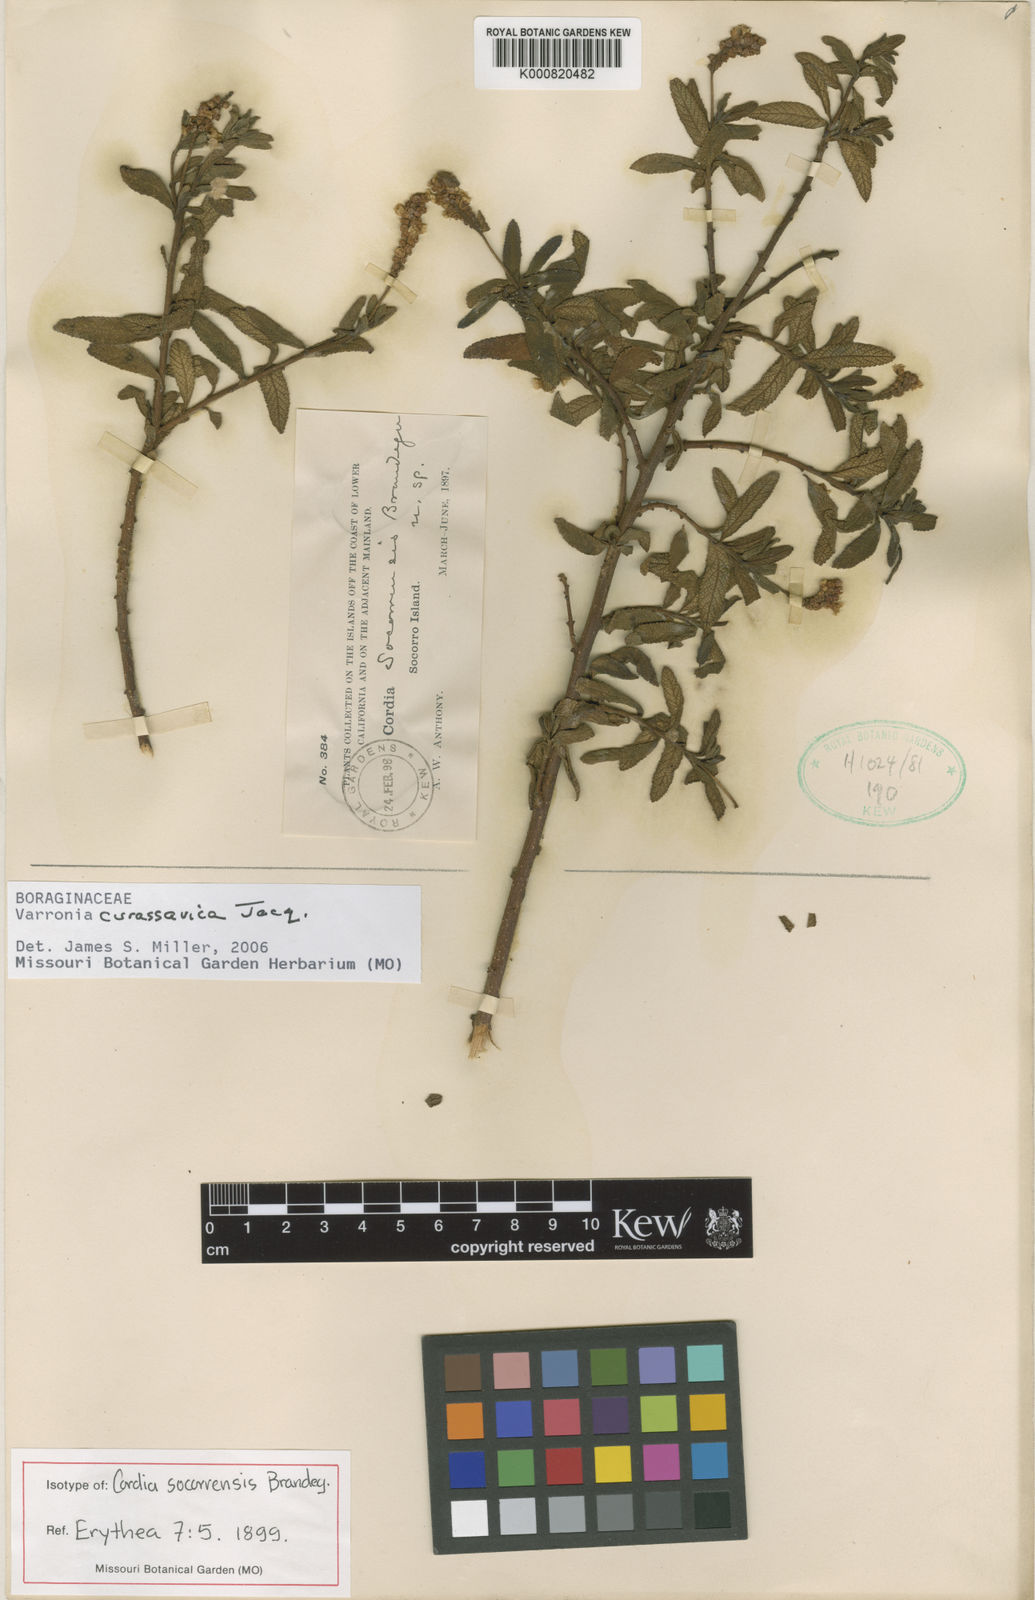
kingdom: Plantae
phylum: Tracheophyta
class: Magnoliopsida
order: Boraginales
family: Cordiaceae
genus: Varronia
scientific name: Varronia curassavica
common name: Black sage
